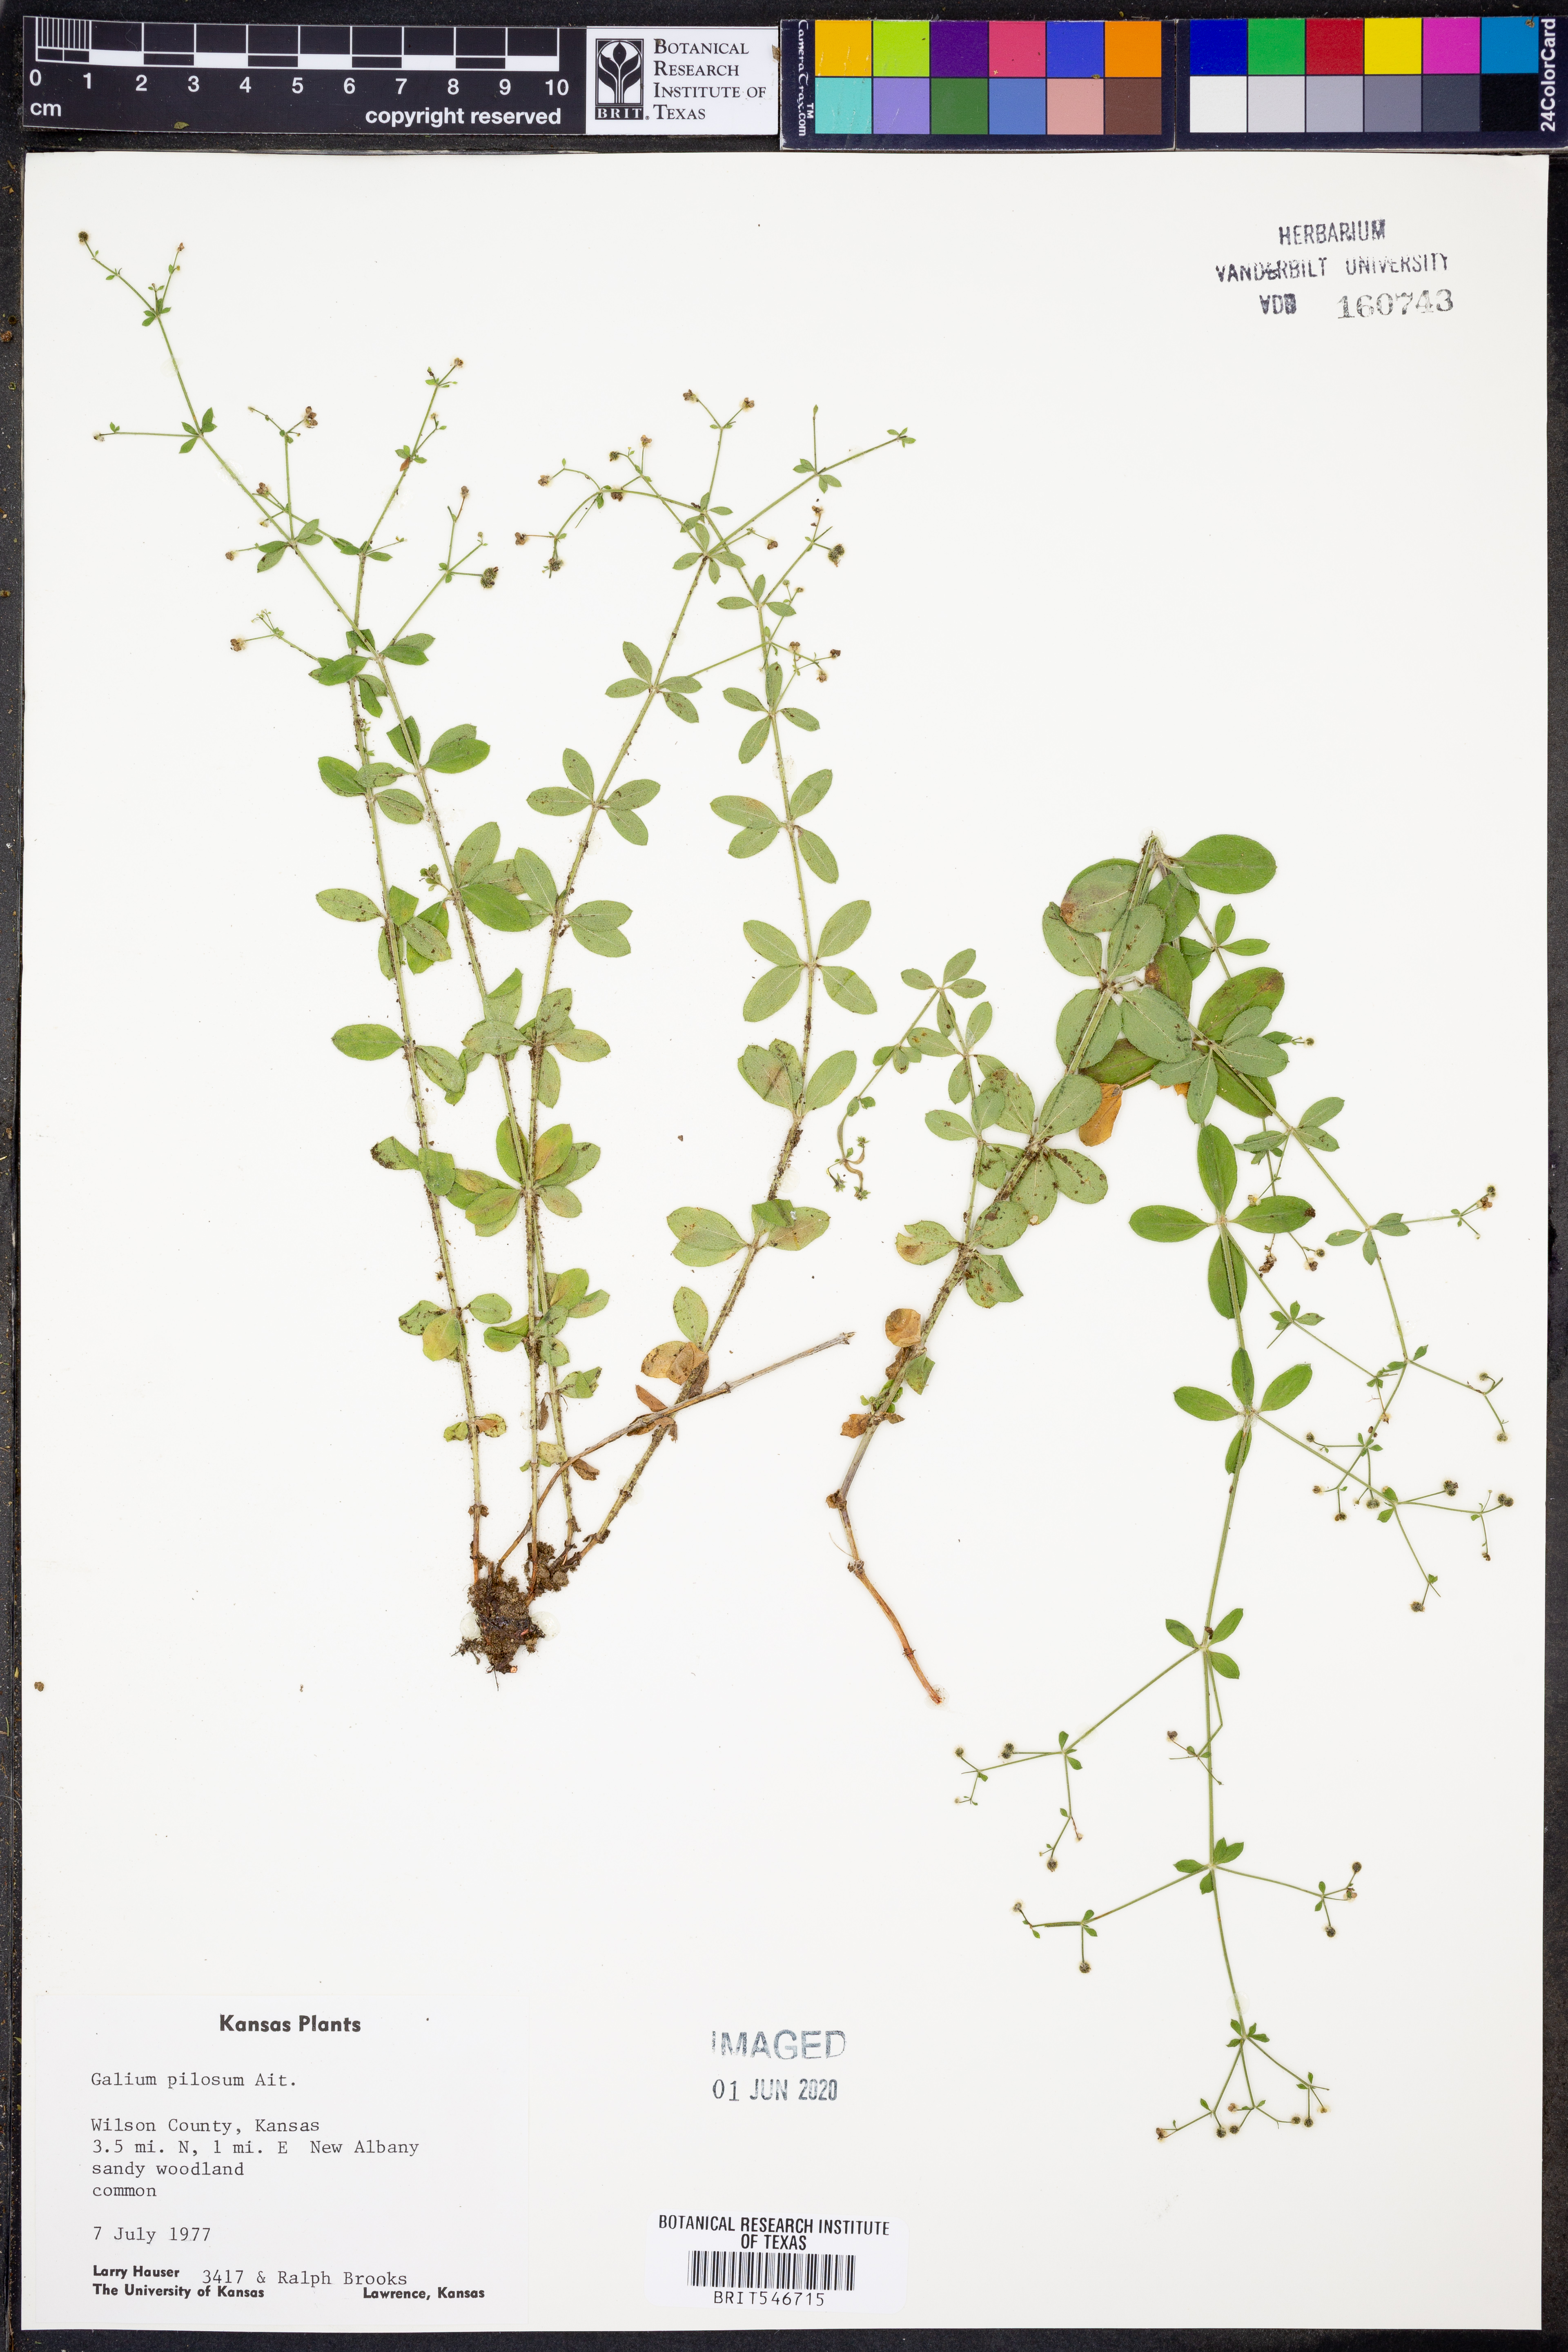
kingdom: Plantae
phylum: Tracheophyta
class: Magnoliopsida
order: Gentianales
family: Rubiaceae
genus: Galium
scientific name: Galium pilosum
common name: Hairy bedstraw
